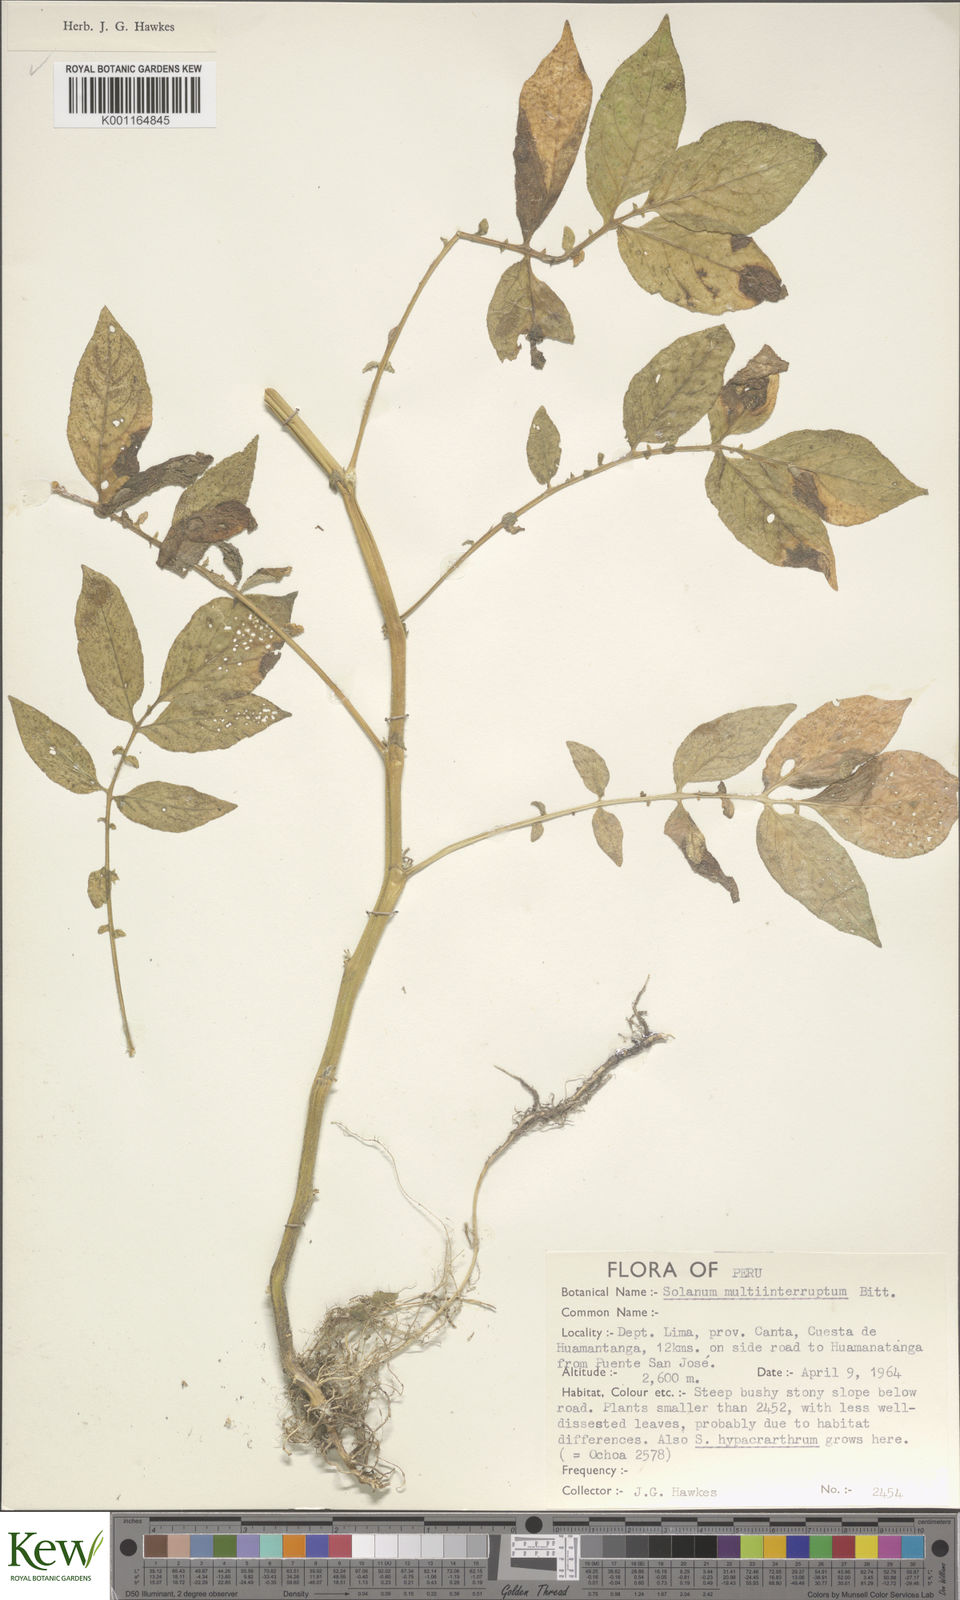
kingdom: Plantae
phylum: Tracheophyta
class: Magnoliopsida
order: Solanales
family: Solanaceae
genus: Solanum
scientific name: Solanum multiinterruptum
